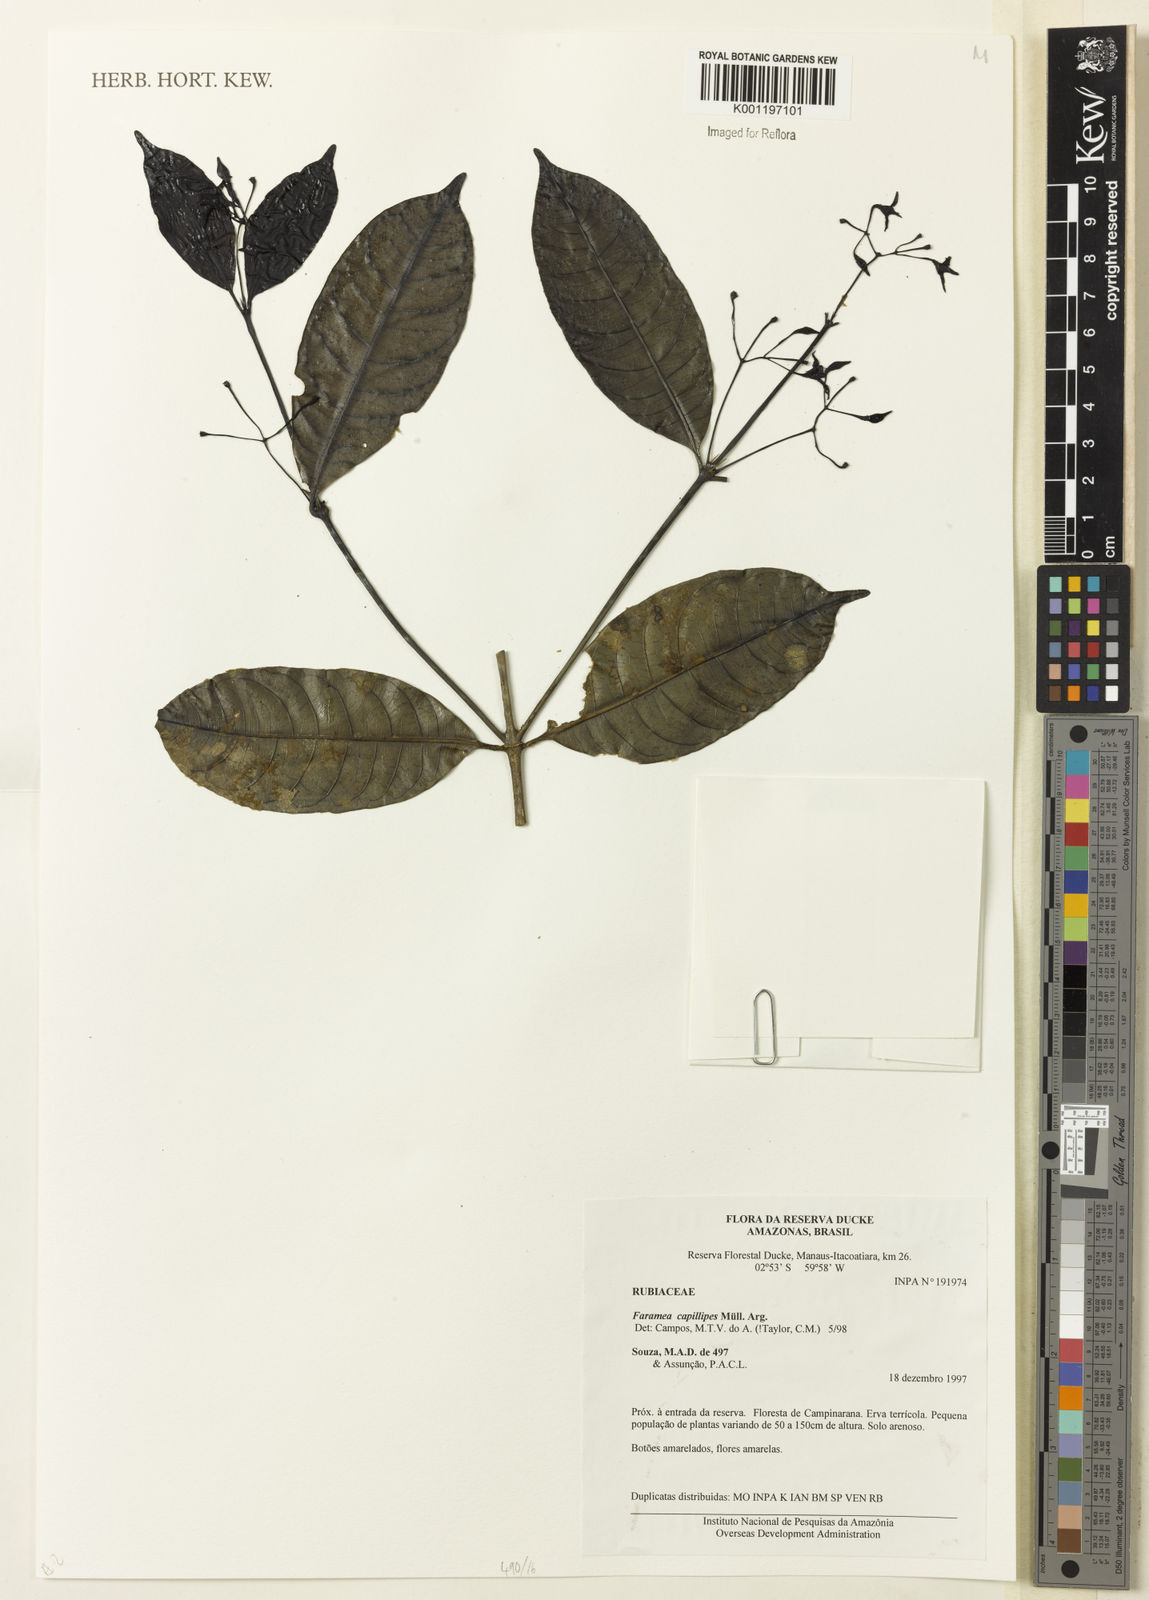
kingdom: Plantae
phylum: Tracheophyta
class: Magnoliopsida
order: Gentianales
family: Rubiaceae
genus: Faramea
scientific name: Faramea
